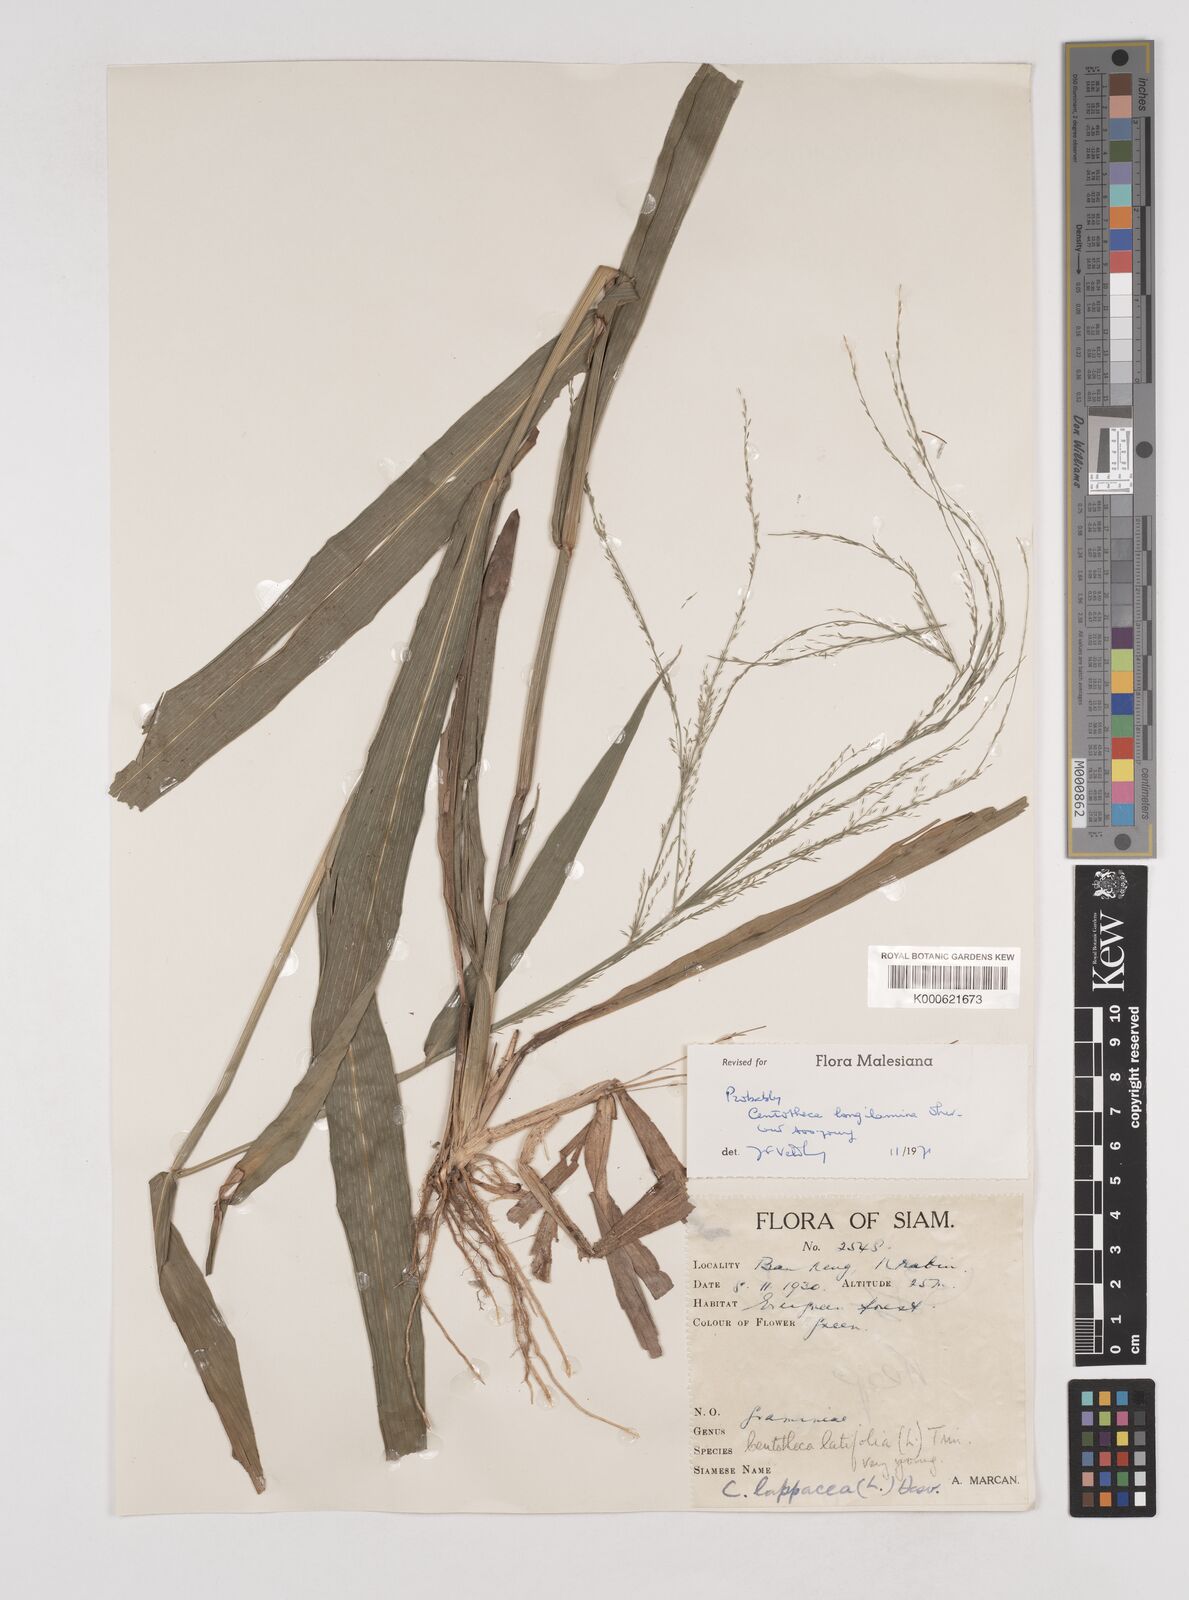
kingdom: Plantae
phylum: Tracheophyta
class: Liliopsida
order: Poales
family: Poaceae
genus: Centotheca
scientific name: Centotheca lappacea
